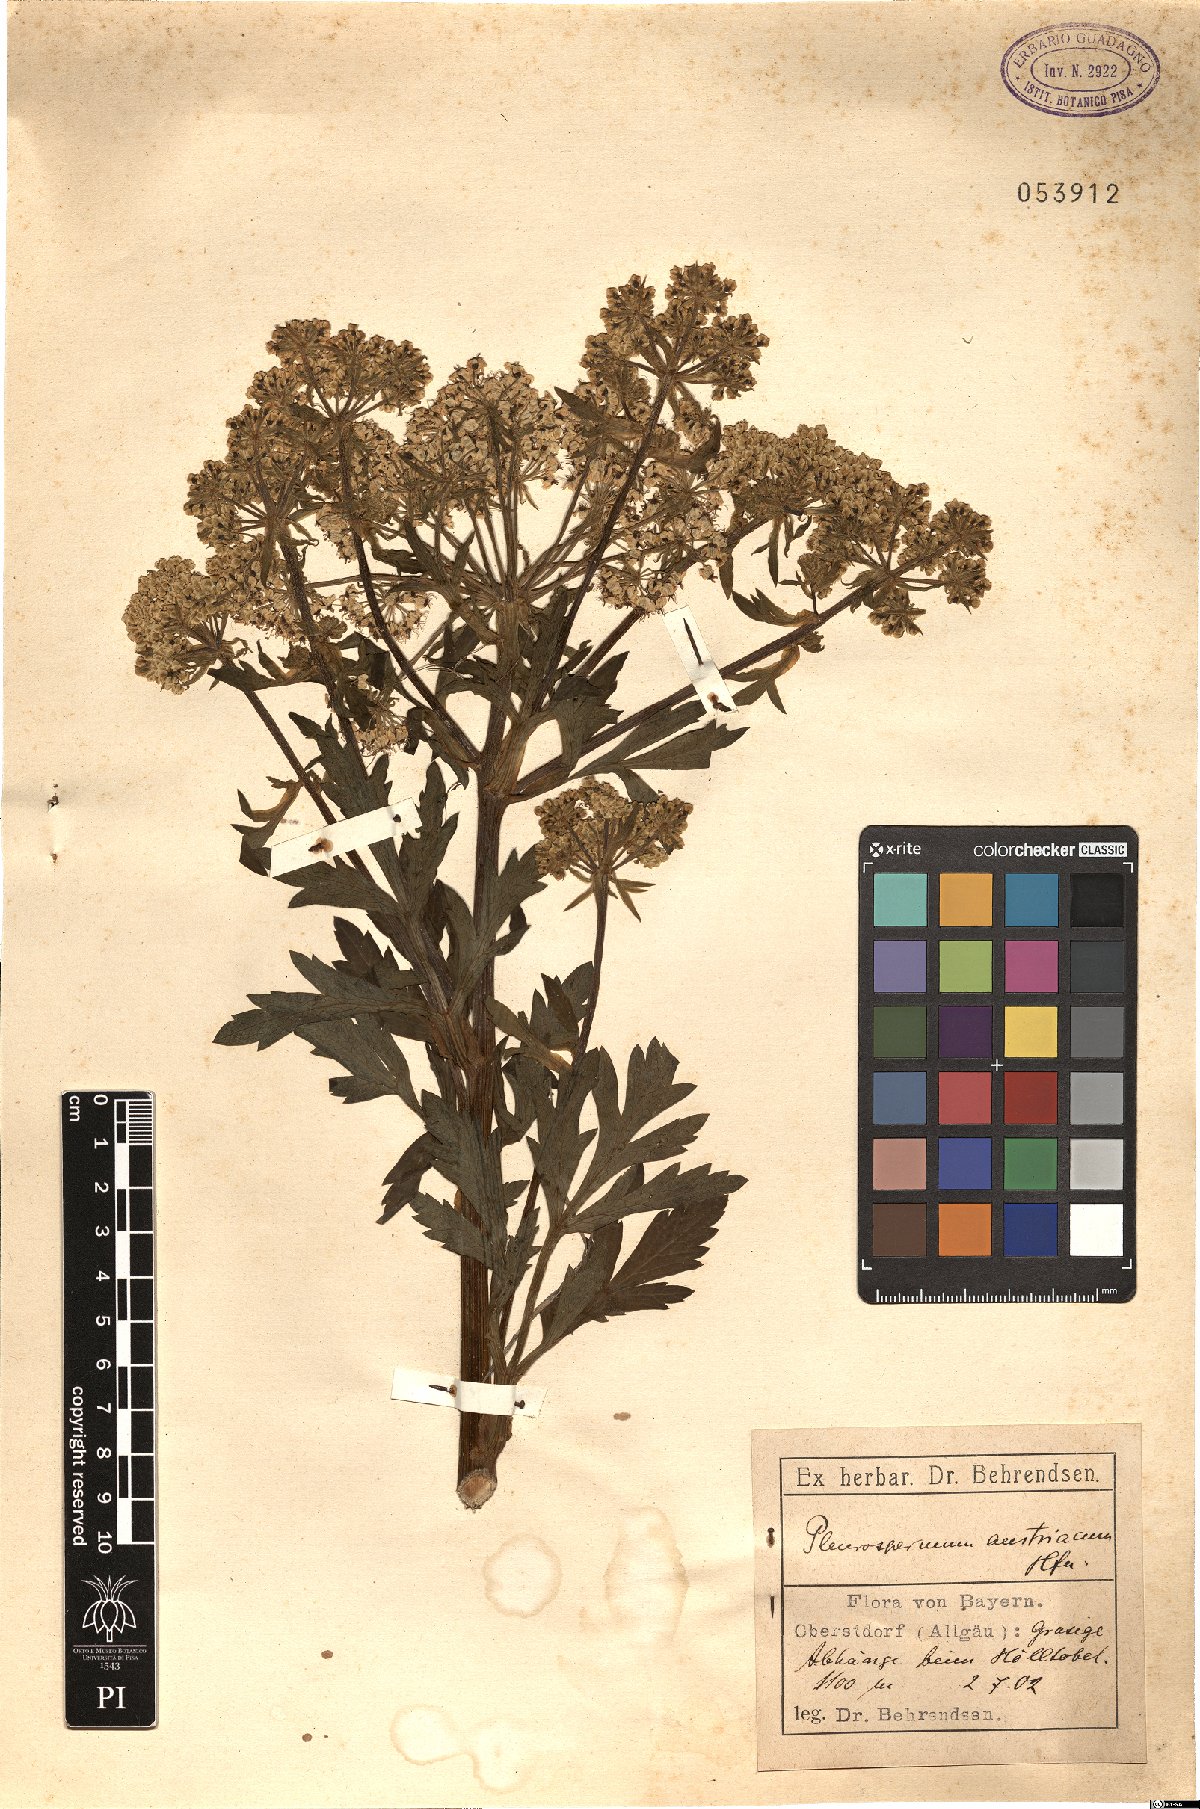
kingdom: Plantae
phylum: Tracheophyta
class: Magnoliopsida
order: Apiales
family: Apiaceae
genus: Pleurospermum
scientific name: Pleurospermum austriacum
